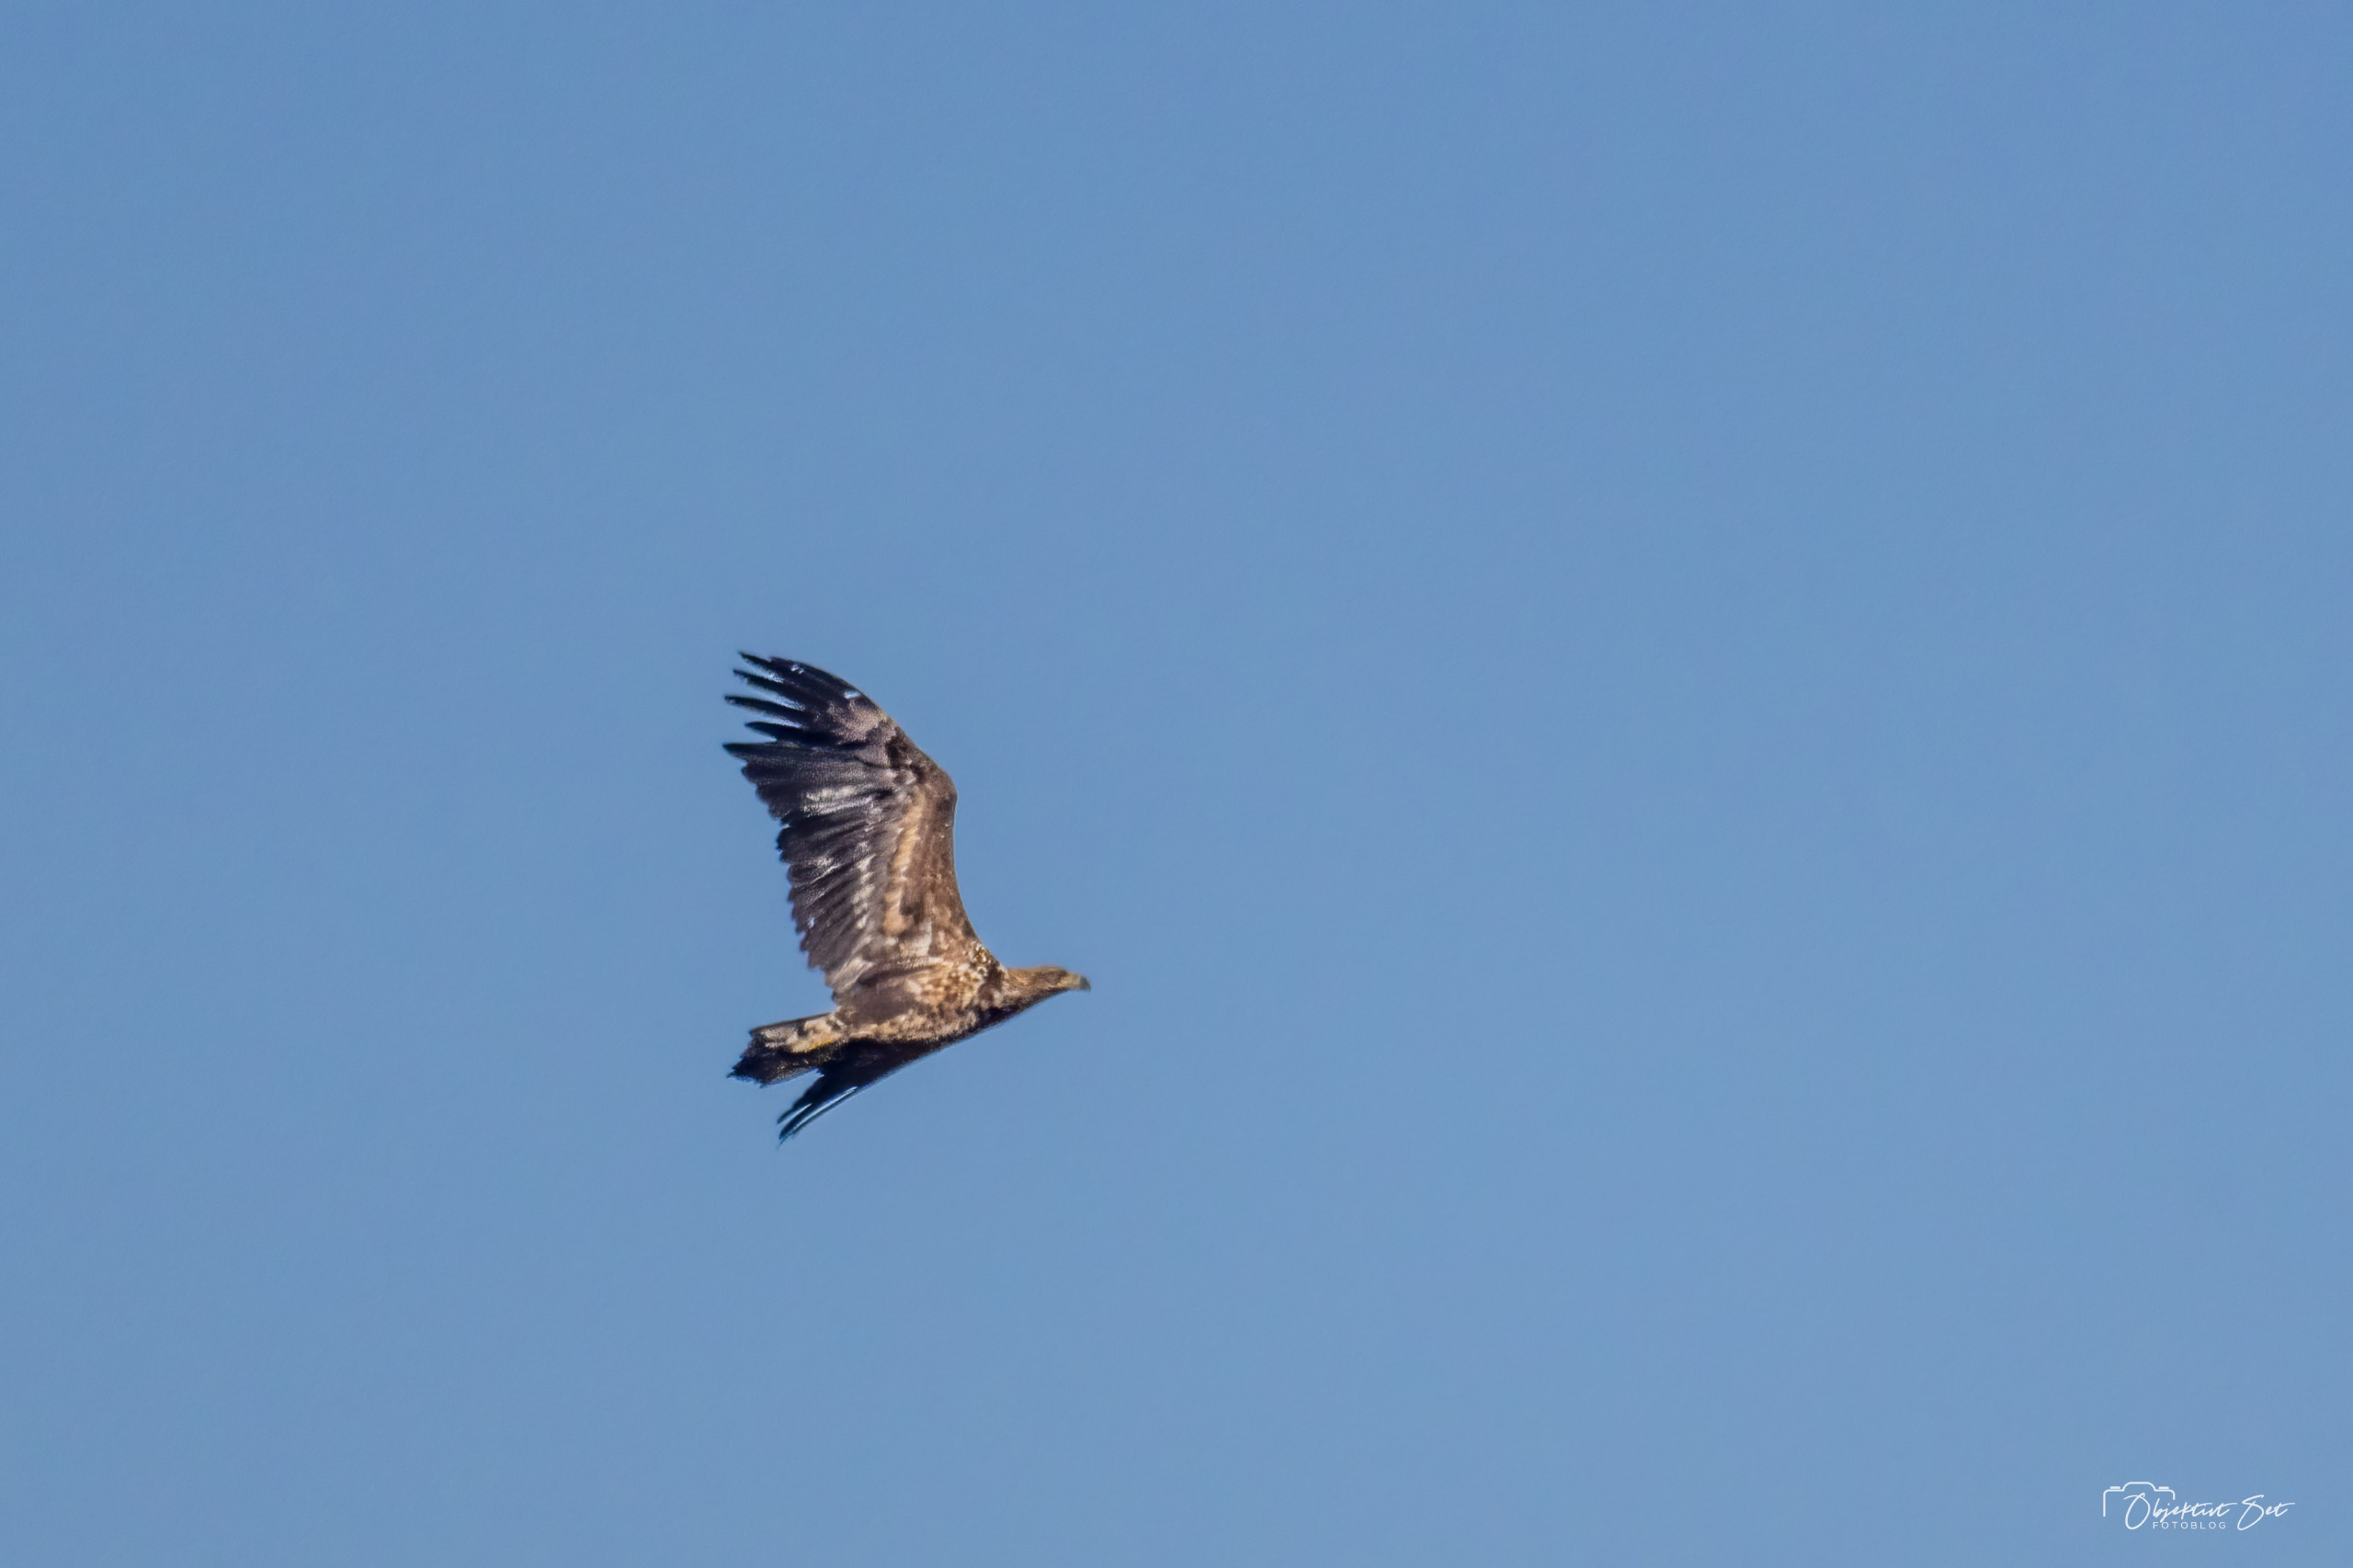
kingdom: Animalia
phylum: Chordata
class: Aves
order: Accipitriformes
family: Accipitridae
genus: Haliaeetus
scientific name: Haliaeetus albicilla
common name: Havørn
